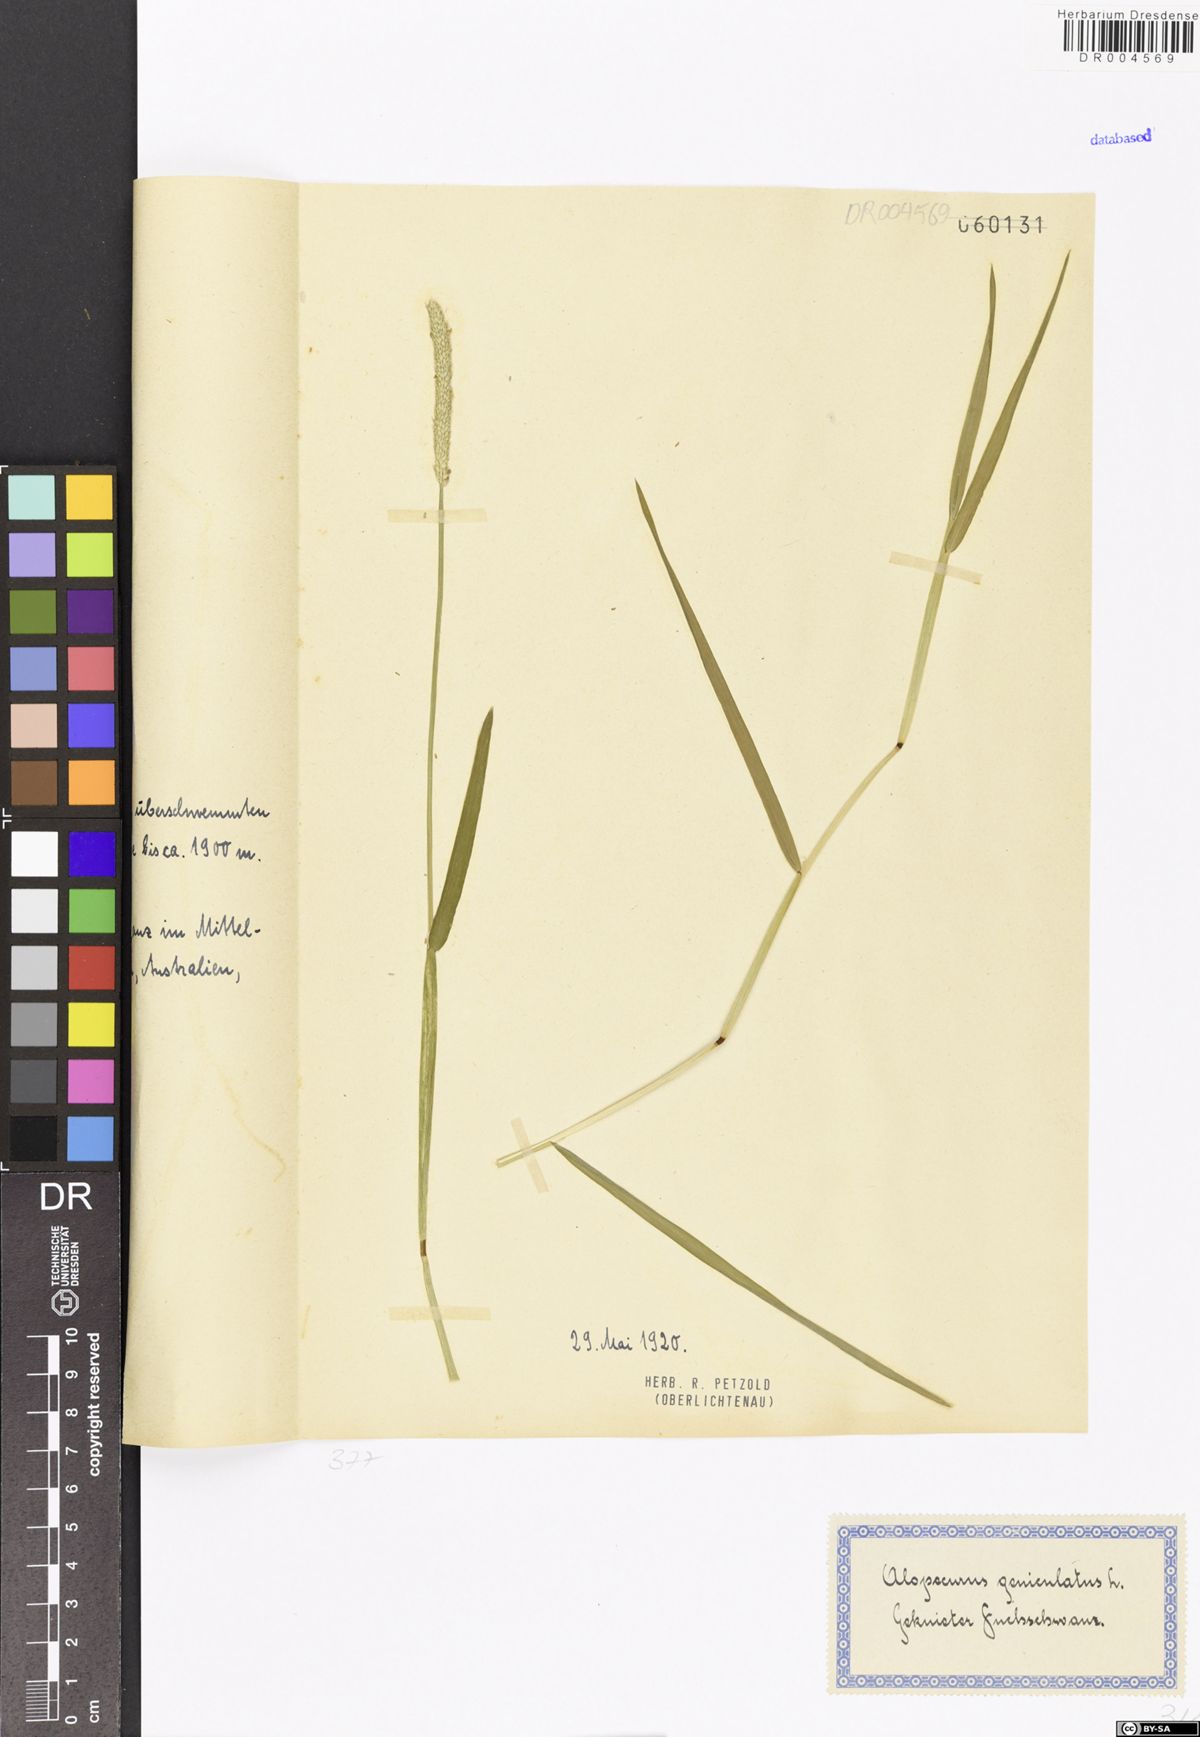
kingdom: Plantae
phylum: Tracheophyta
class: Liliopsida
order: Poales
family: Poaceae
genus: Alopecurus
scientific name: Alopecurus geniculatus
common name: Water foxtail
